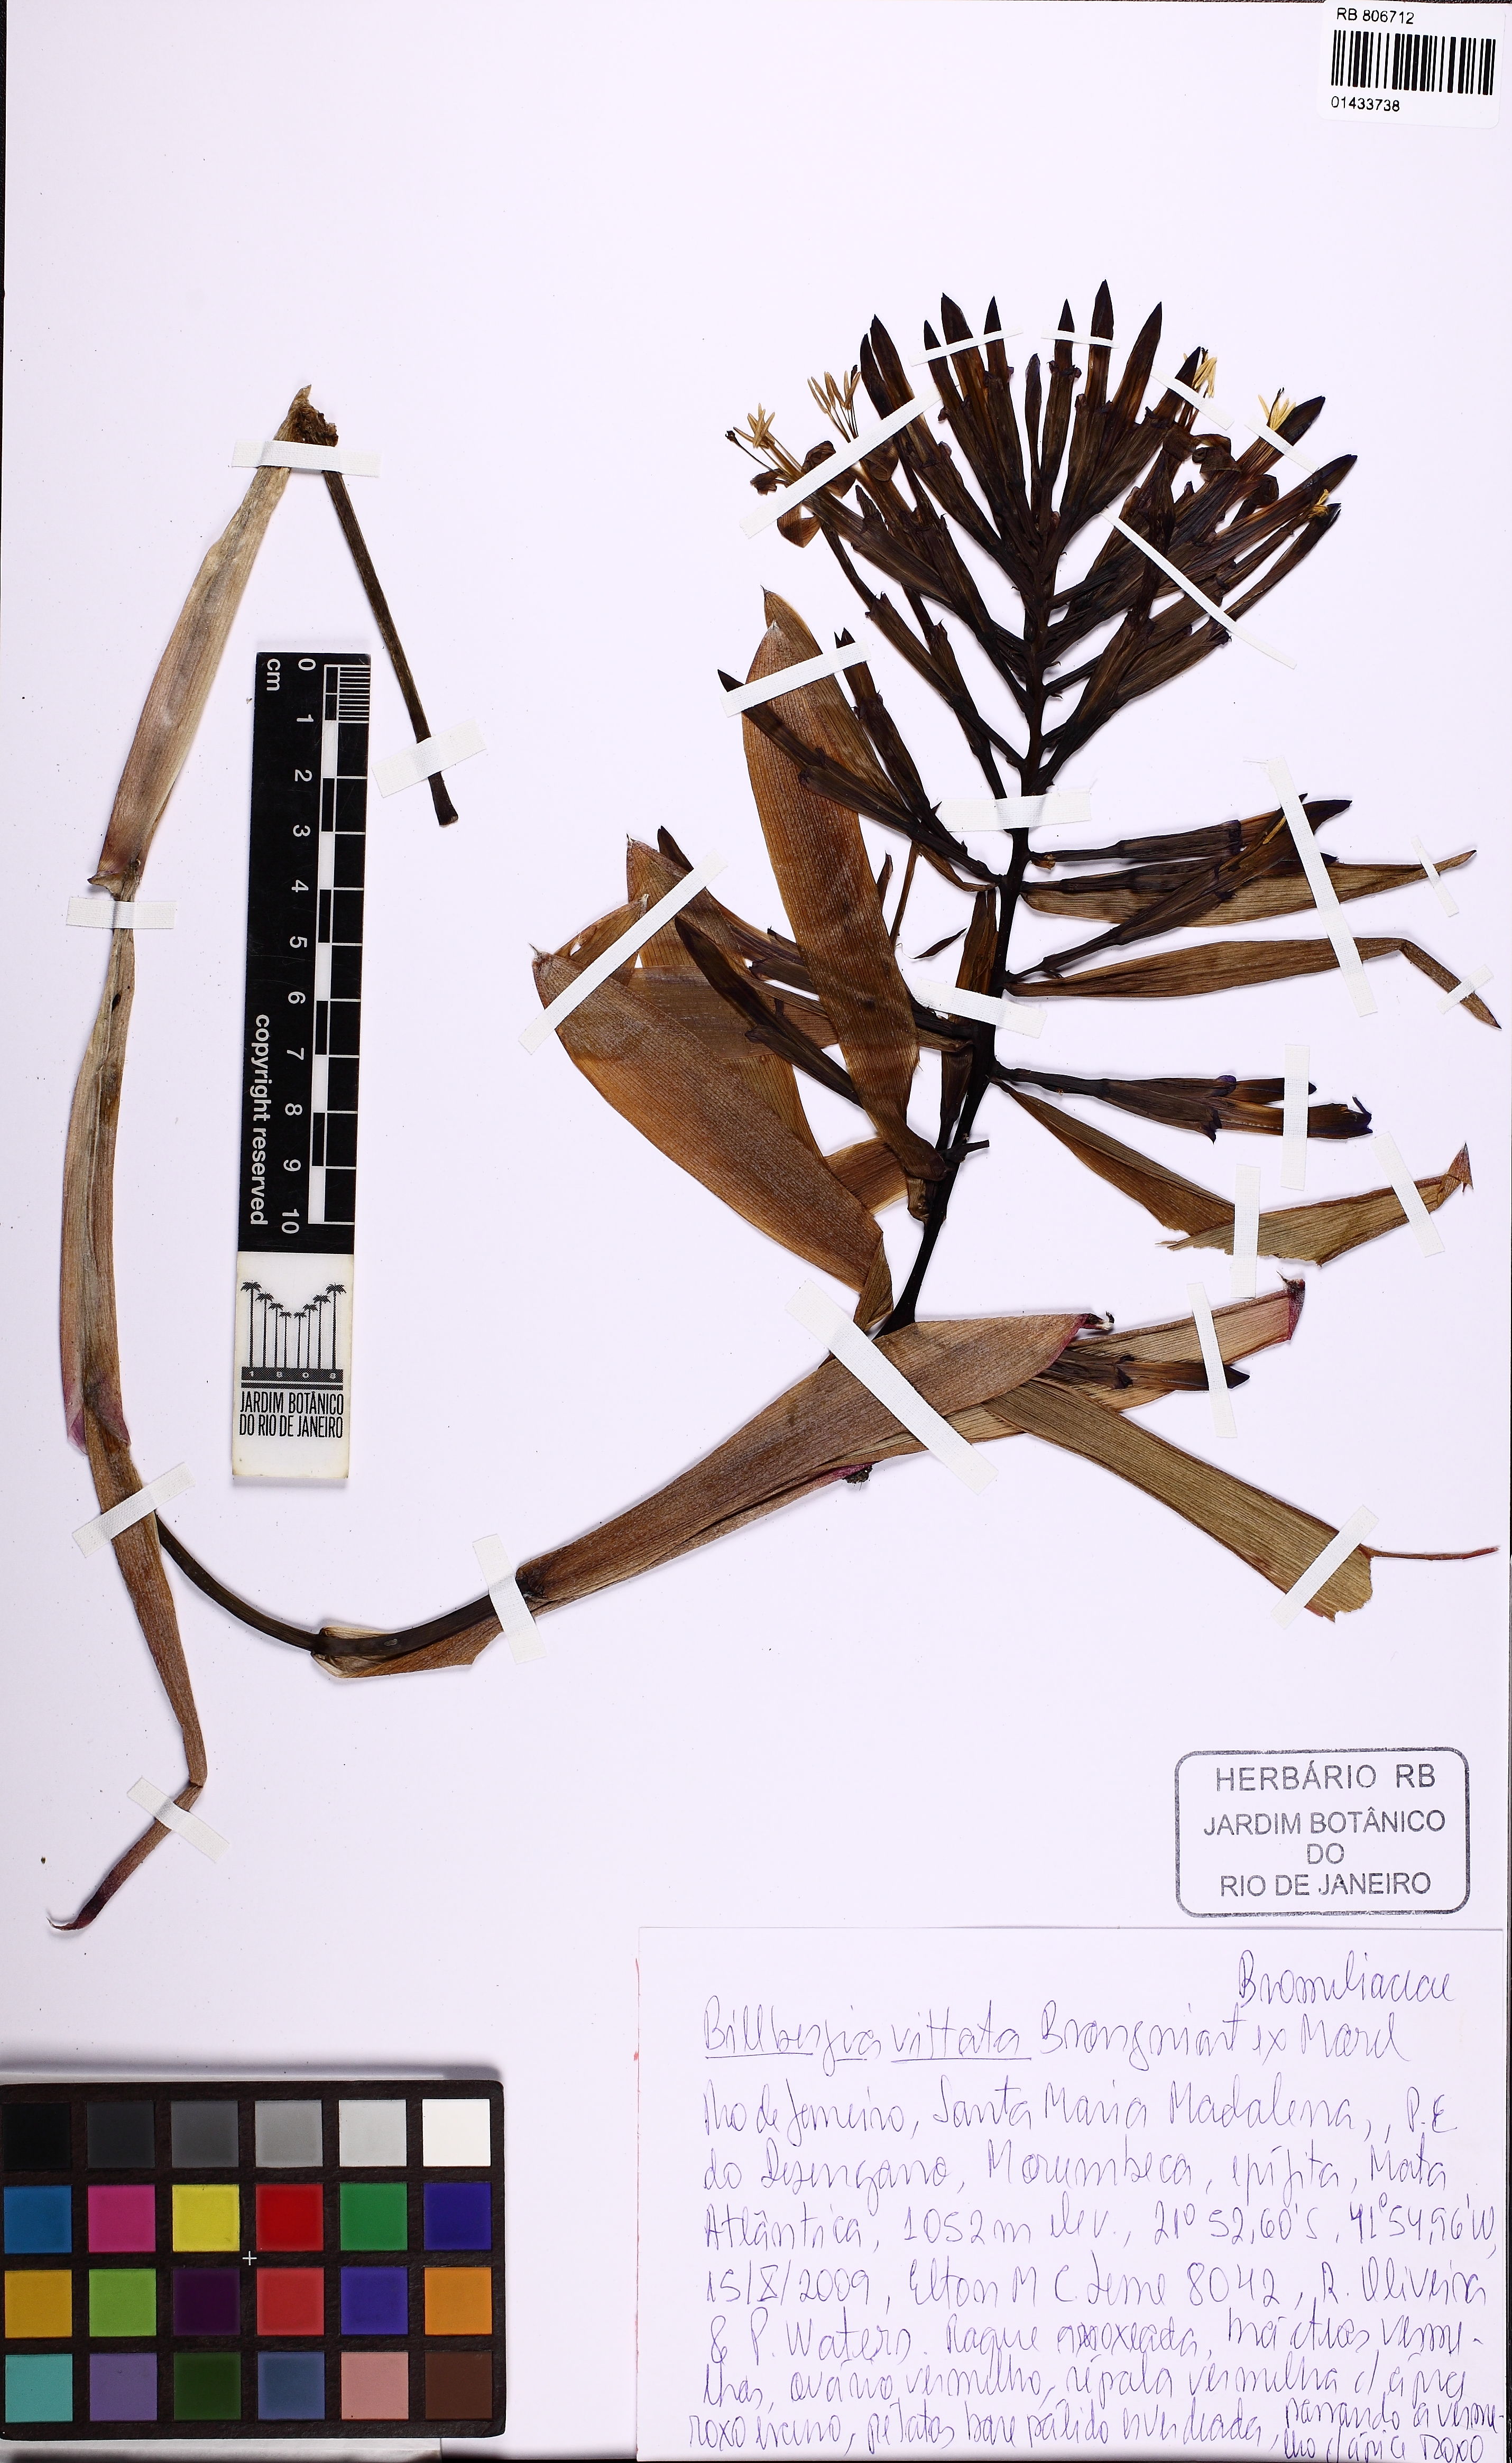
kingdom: Plantae
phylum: Tracheophyta
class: Liliopsida
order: Poales
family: Bromeliaceae
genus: Billbergia
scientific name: Billbergia vittata
